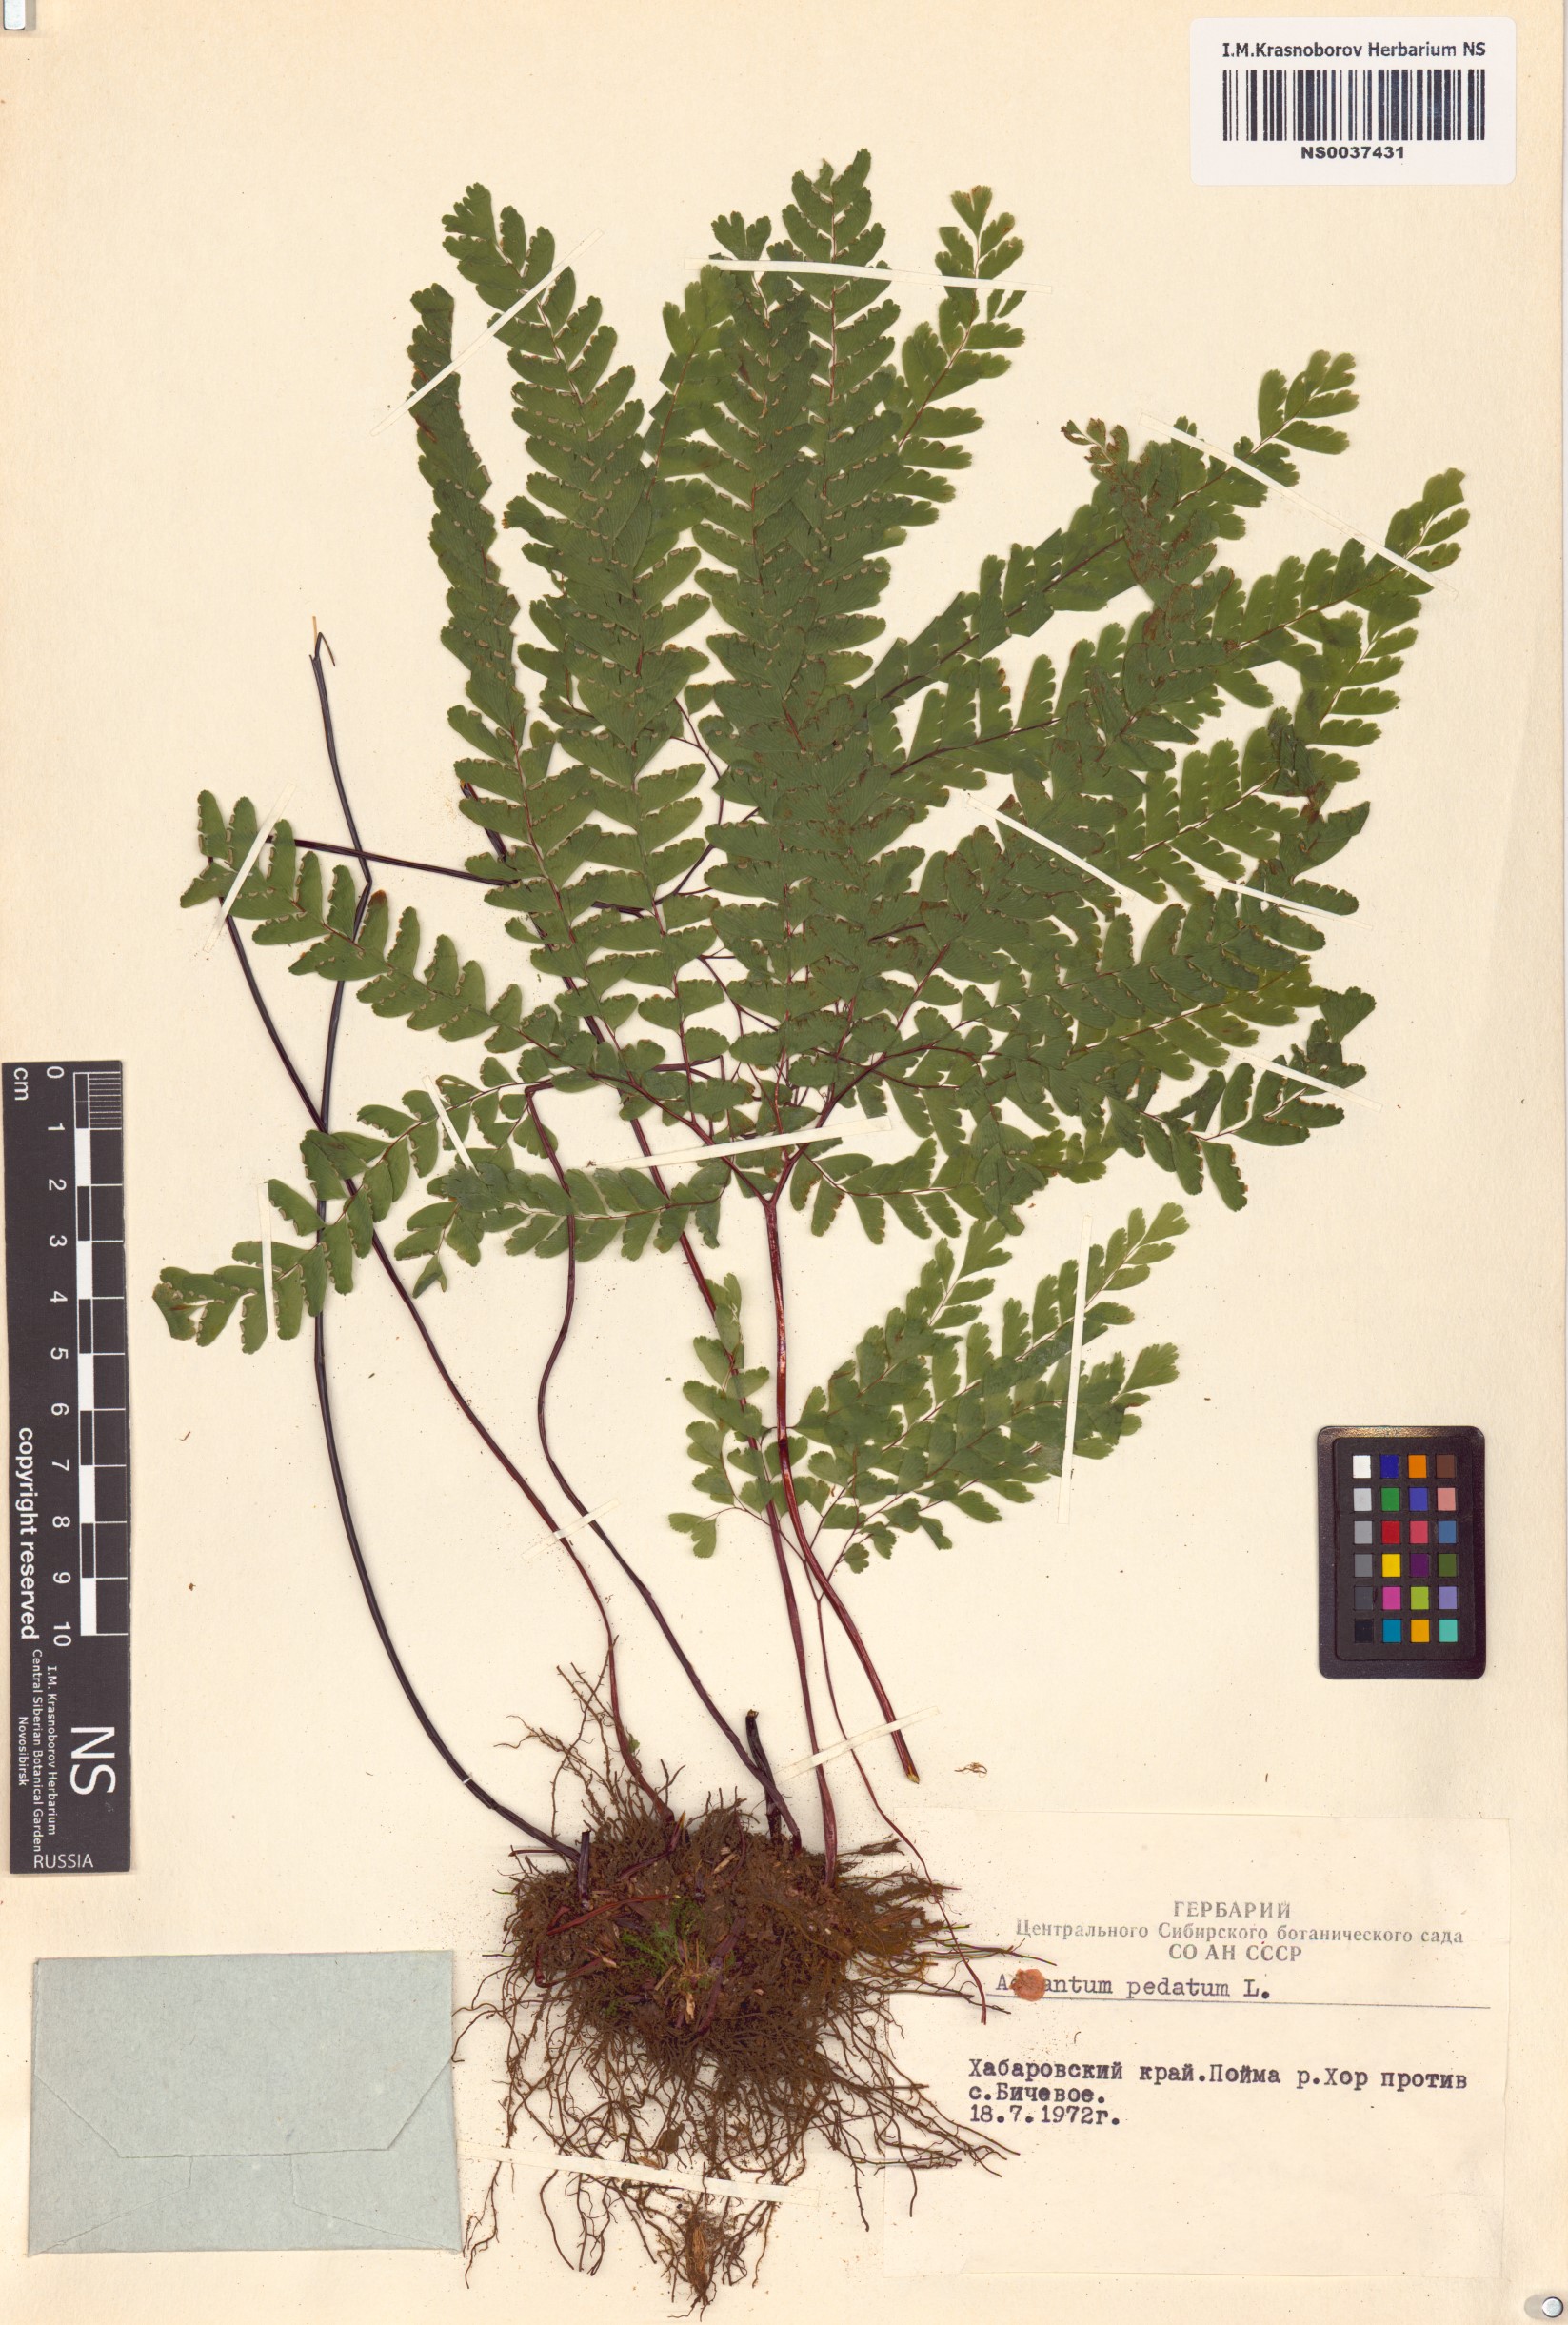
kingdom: Plantae
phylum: Tracheophyta
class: Polypodiopsida
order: Polypodiales
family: Pteridaceae
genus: Adiantum
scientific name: Adiantum pedatum
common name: Five-finger fern
